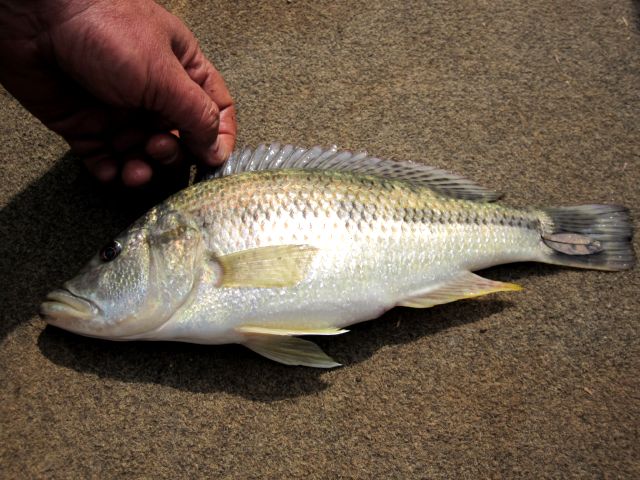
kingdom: Animalia
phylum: Chordata
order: Perciformes
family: Cichlidae
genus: Serranochromis
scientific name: Serranochromis
